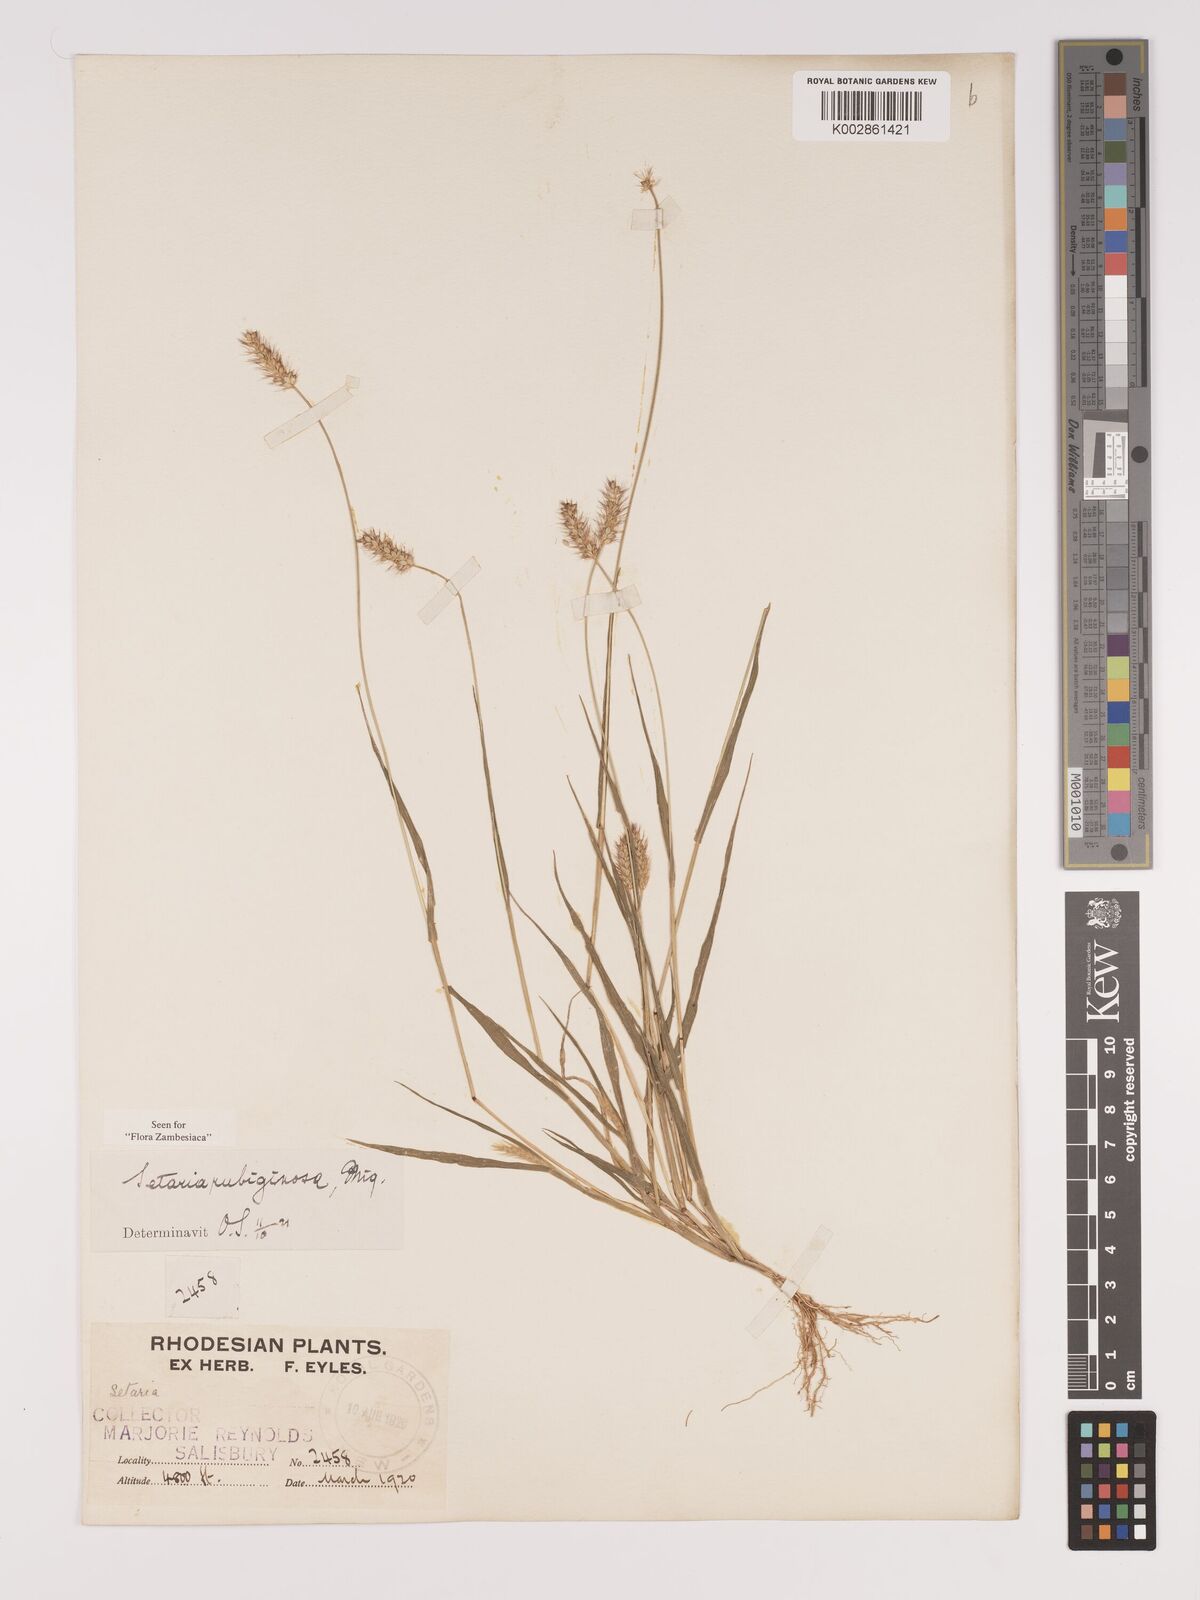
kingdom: Plantae
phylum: Tracheophyta
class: Liliopsida
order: Poales
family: Poaceae
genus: Setaria
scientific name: Setaria pumila
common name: Yellow bristle-grass
